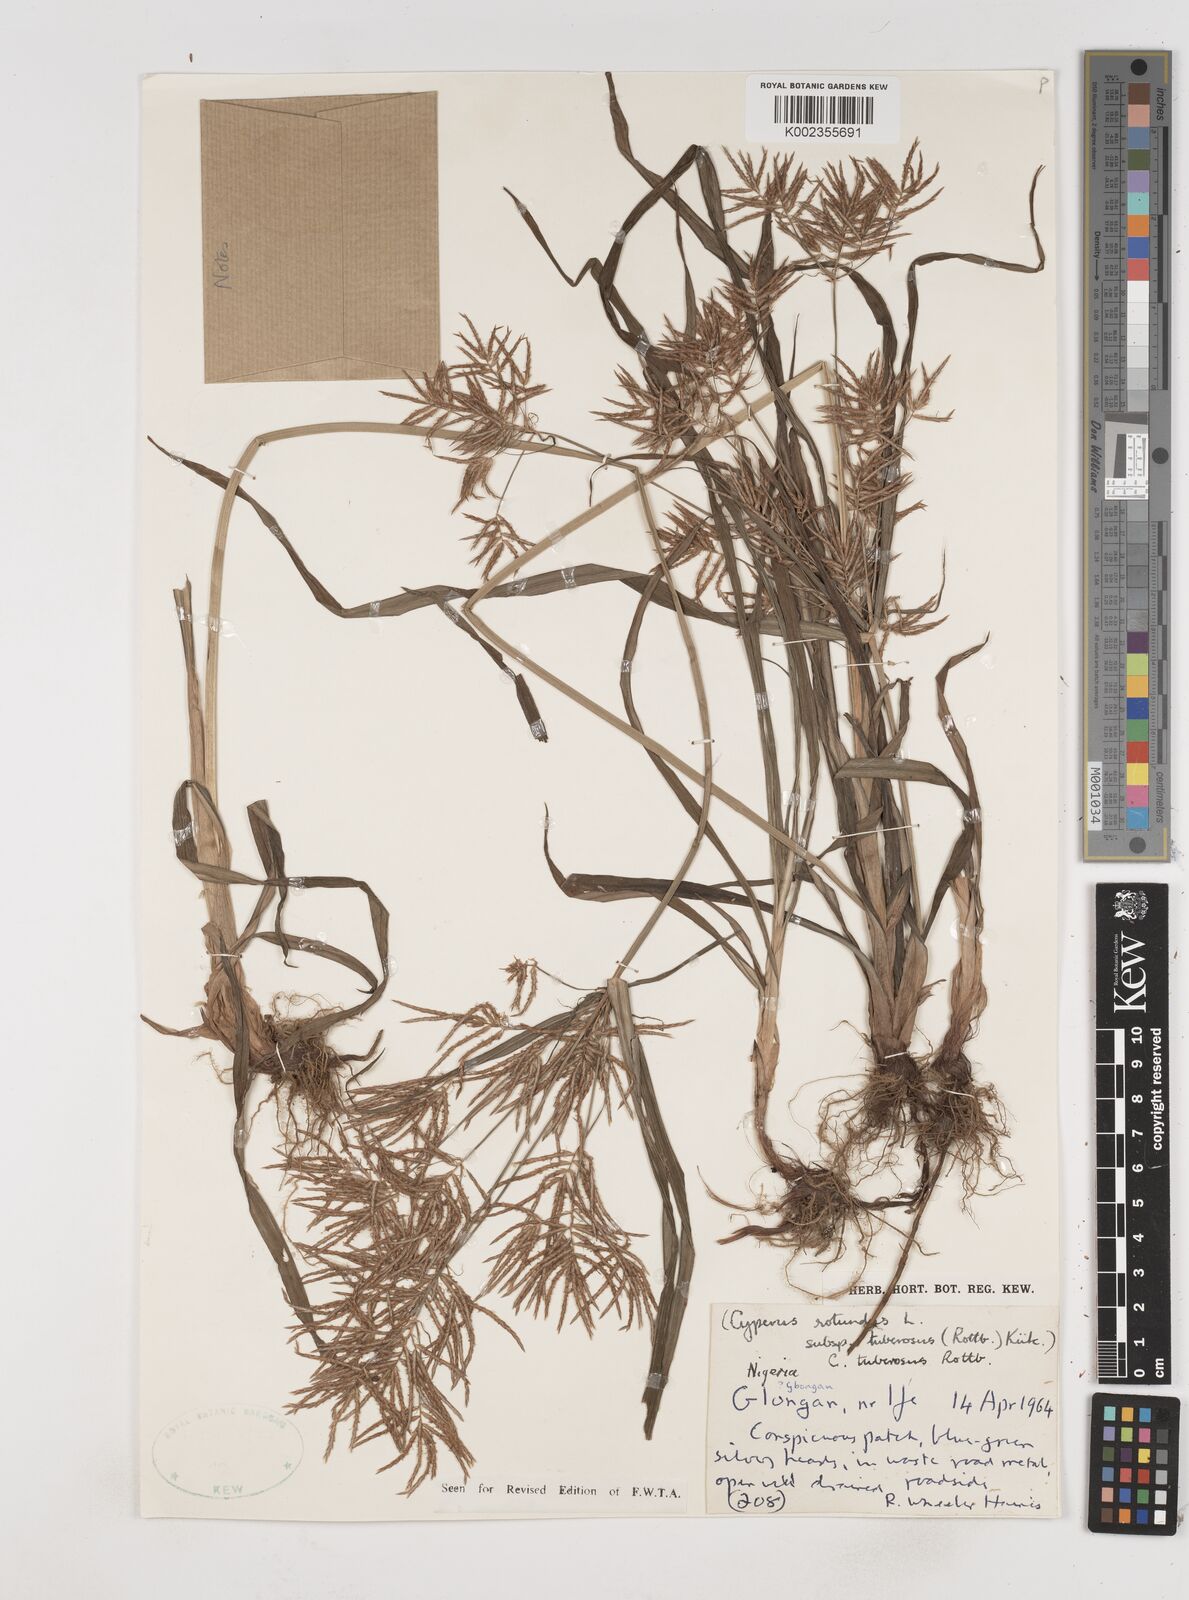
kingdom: Plantae
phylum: Tracheophyta
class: Liliopsida
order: Poales
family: Cyperaceae
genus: Cyperus
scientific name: Cyperus tuberosus
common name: Nut grass
